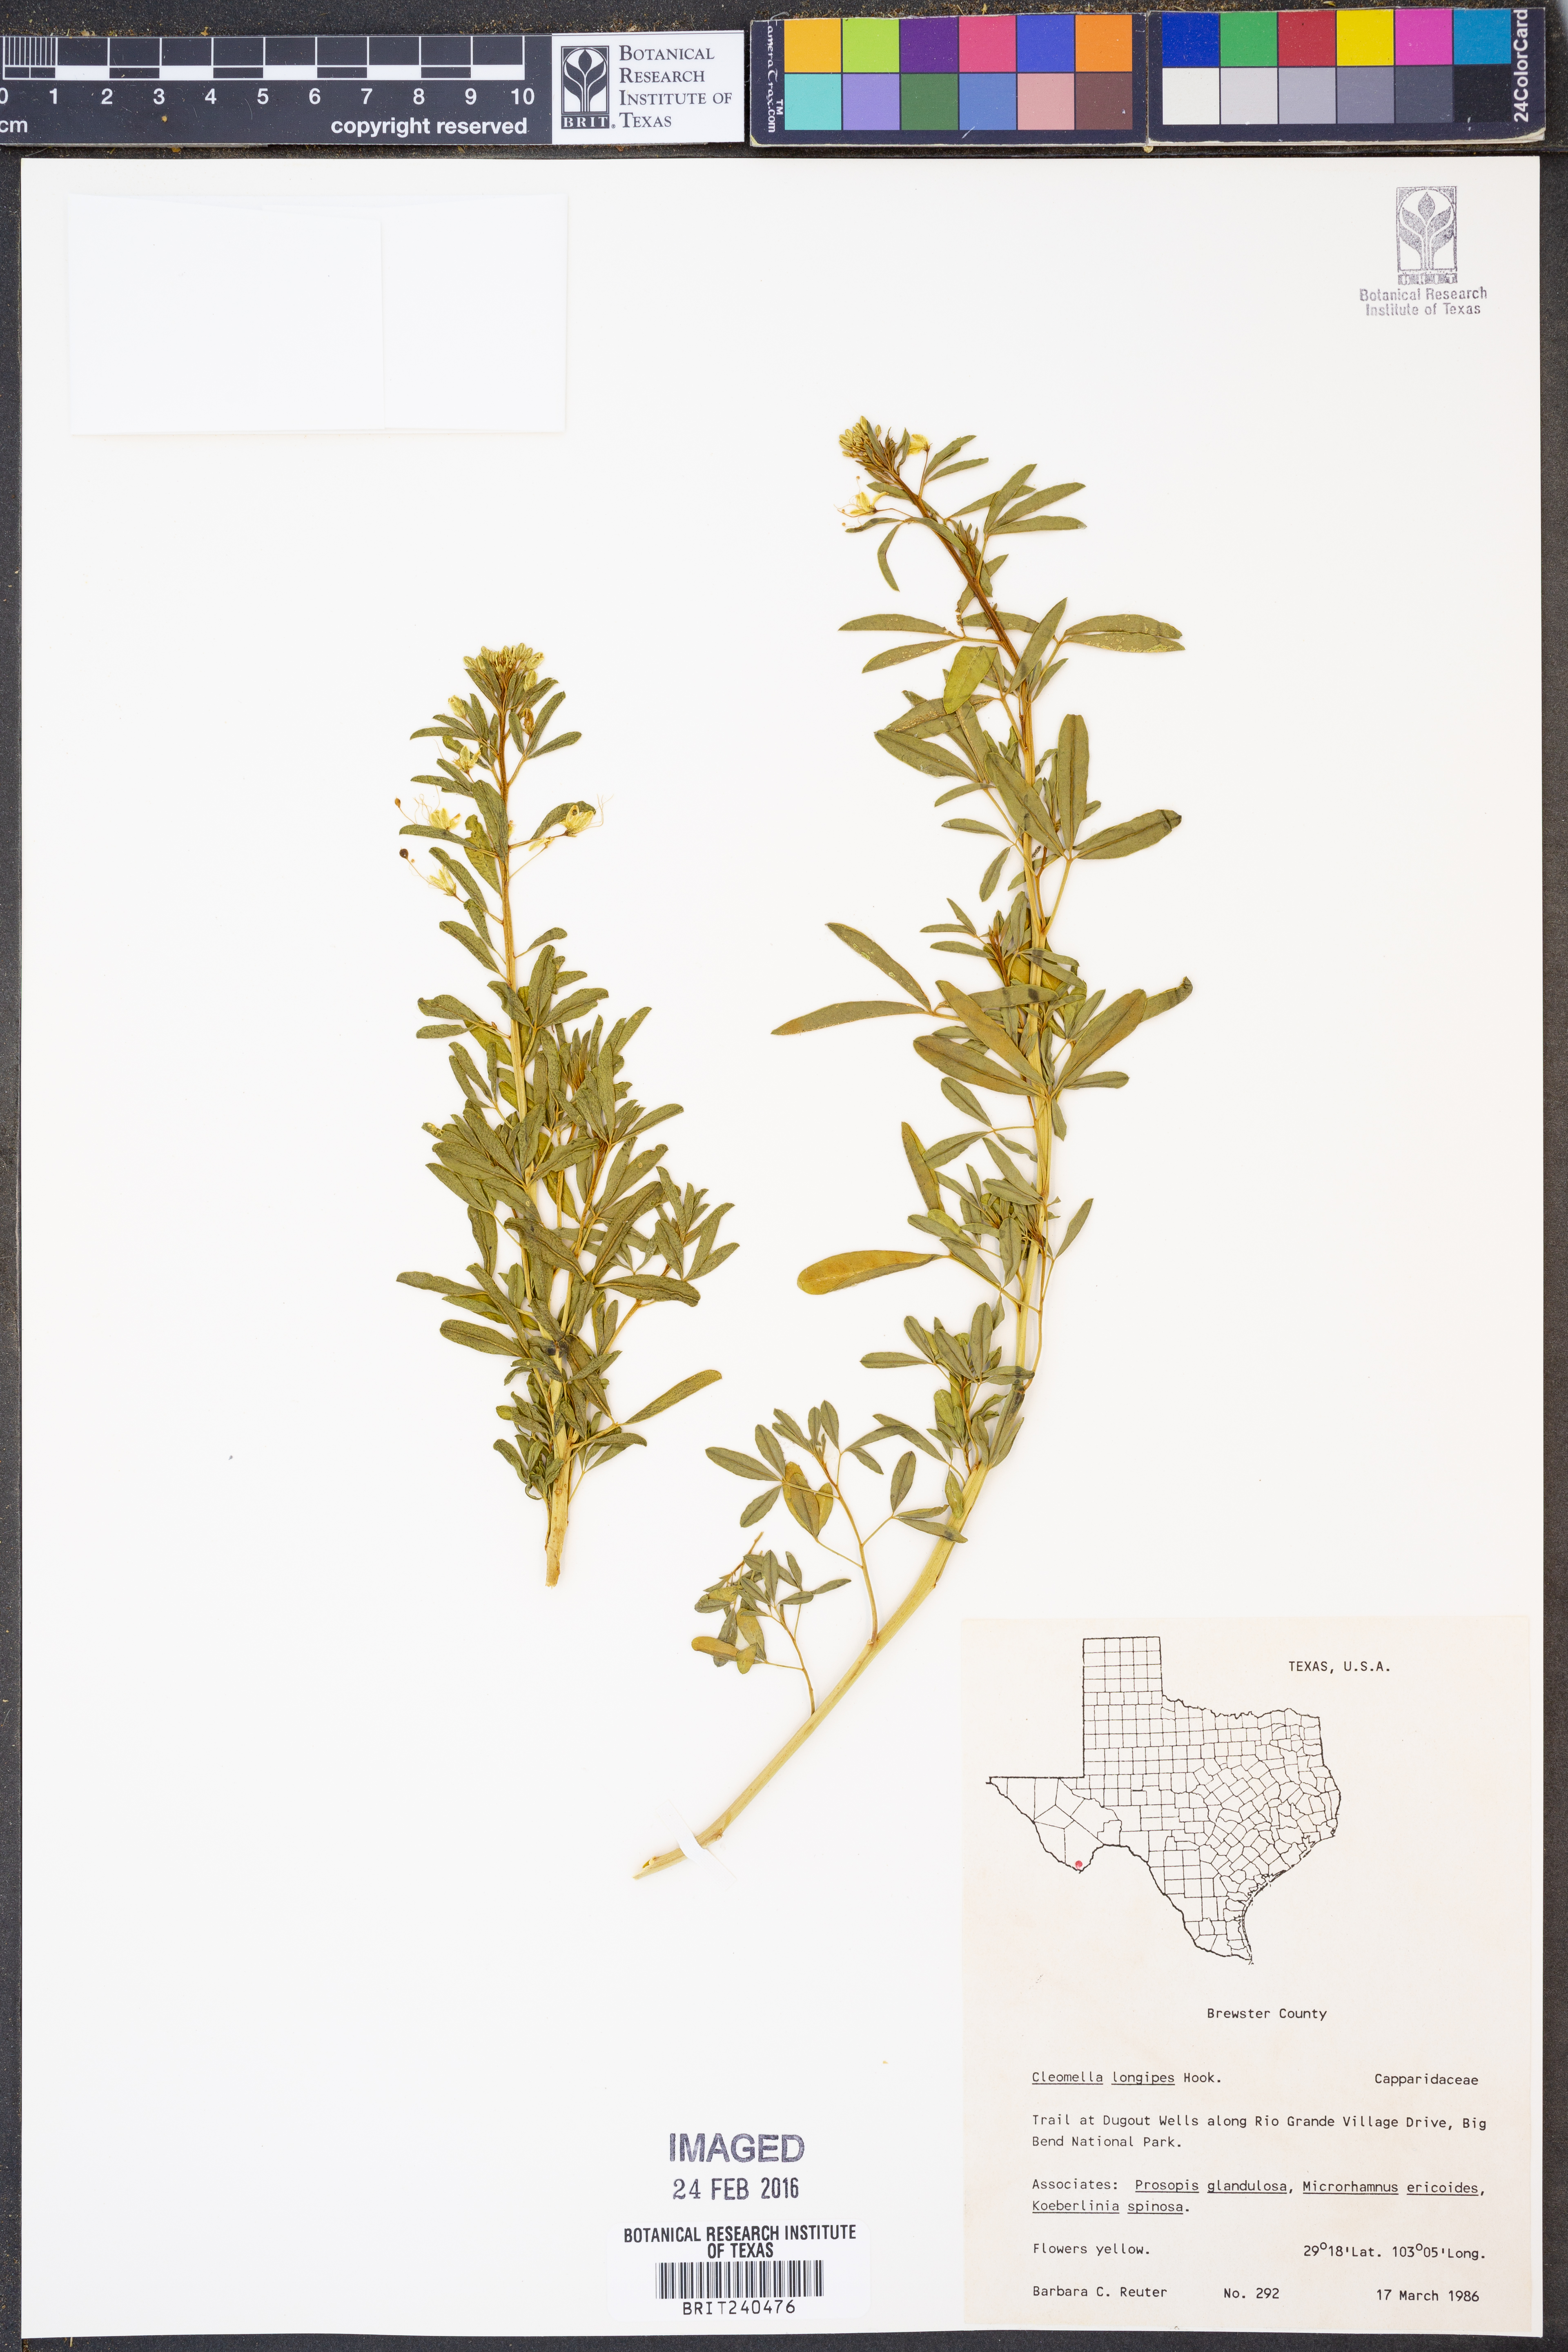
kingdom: Plantae
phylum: Tracheophyta
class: Magnoliopsida
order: Brassicales
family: Cleomaceae
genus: Cleomella
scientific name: Cleomella longipes
